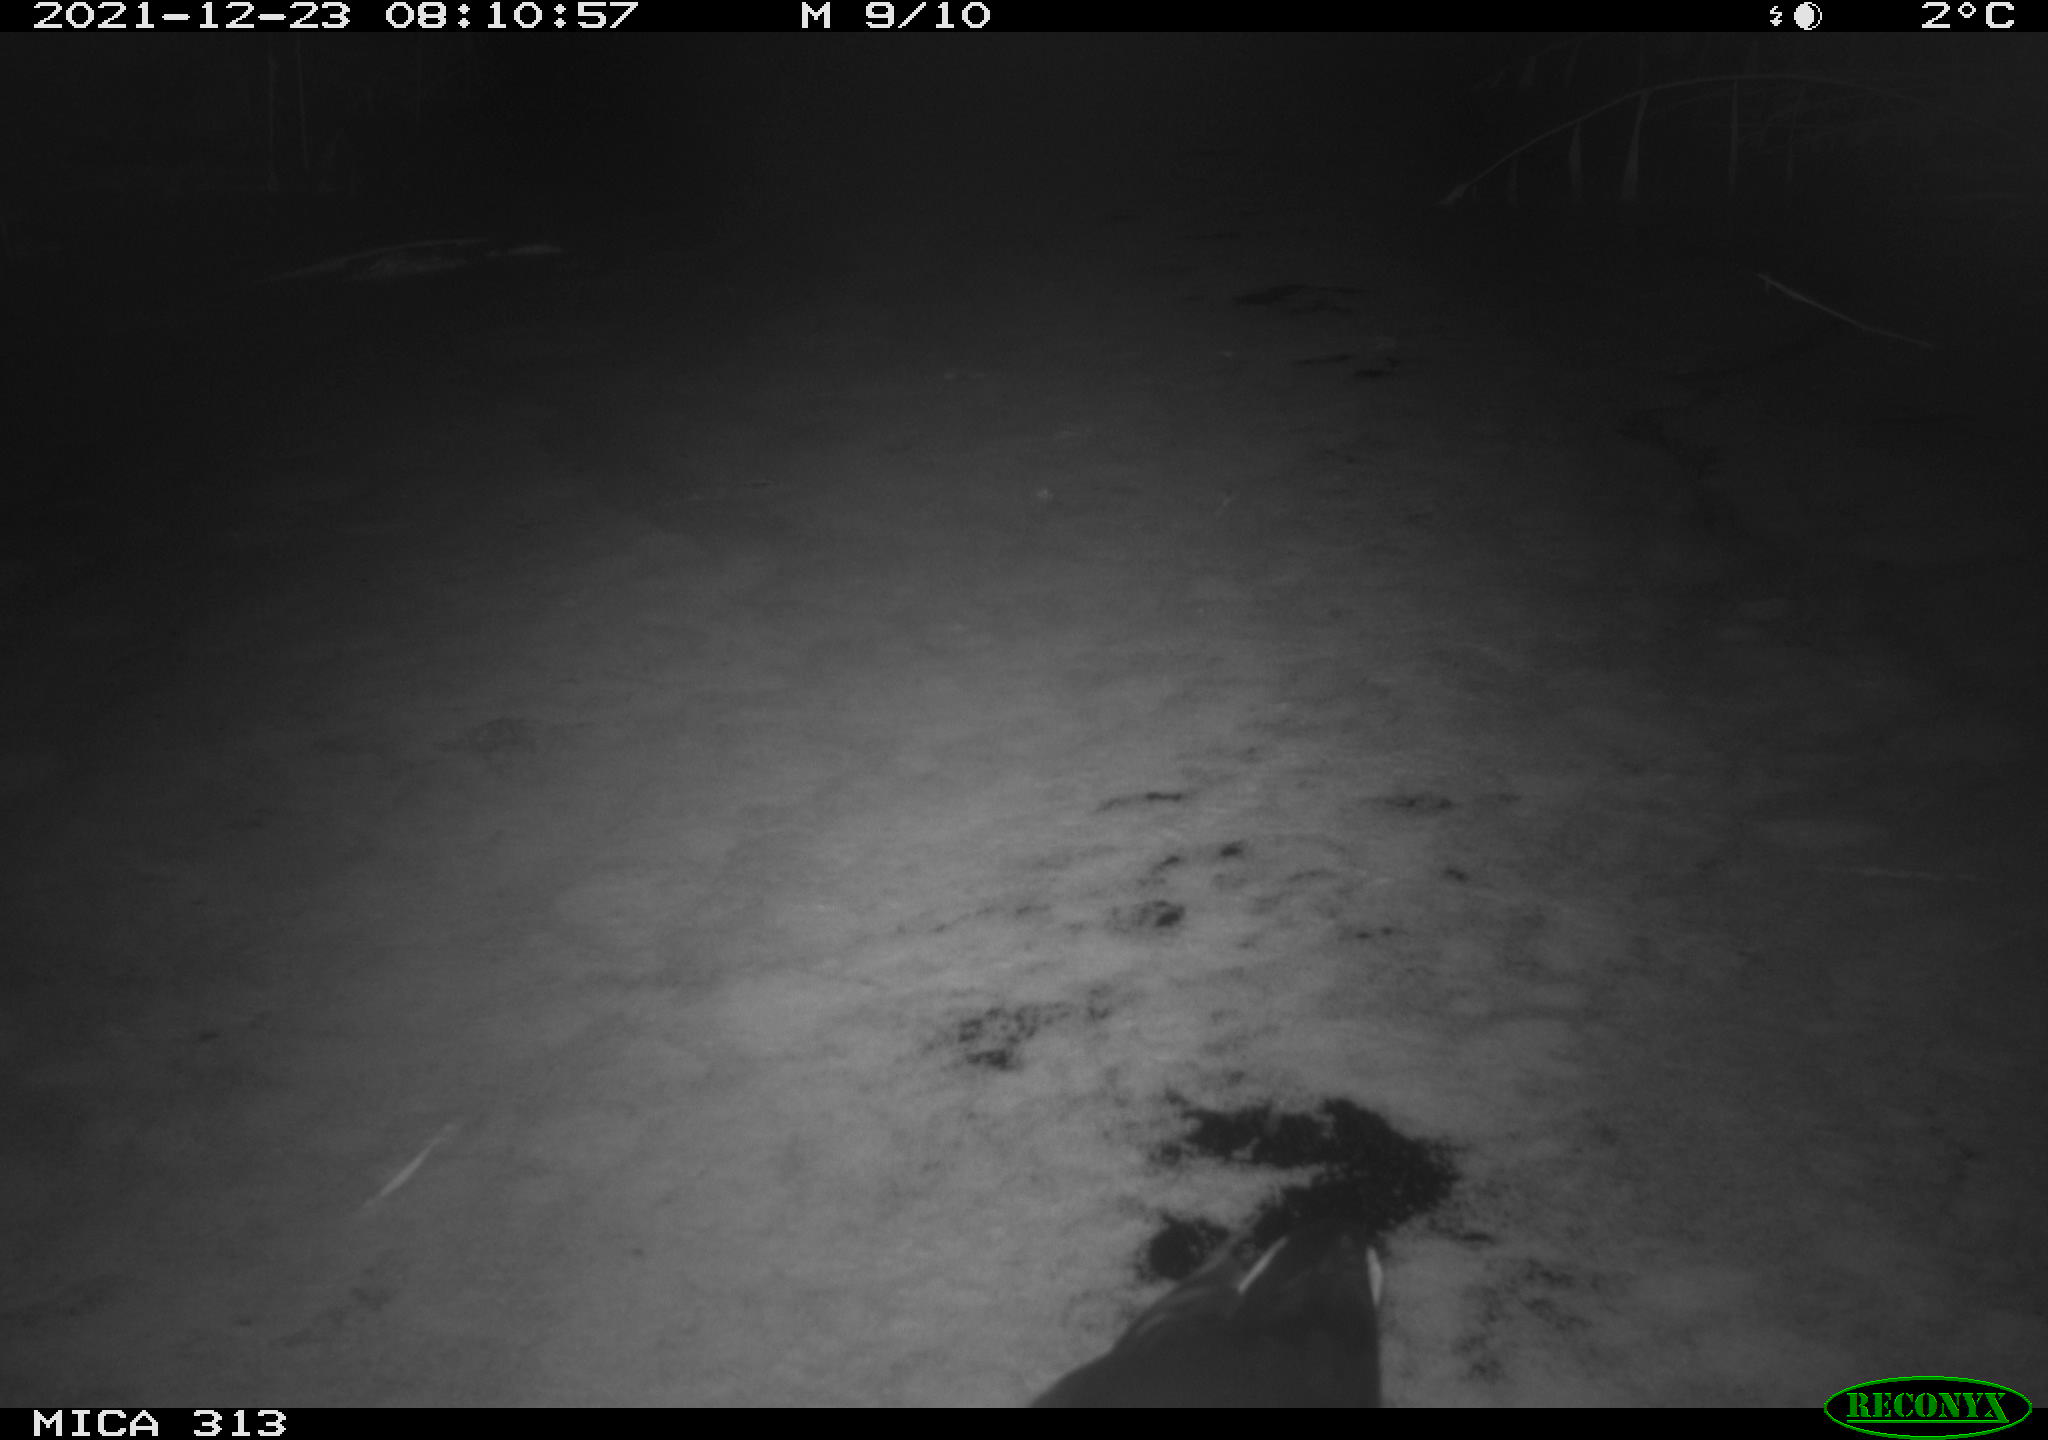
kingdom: Animalia
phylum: Chordata
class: Aves
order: Gruiformes
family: Rallidae
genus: Fulica
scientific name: Fulica atra
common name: Eurasian coot
